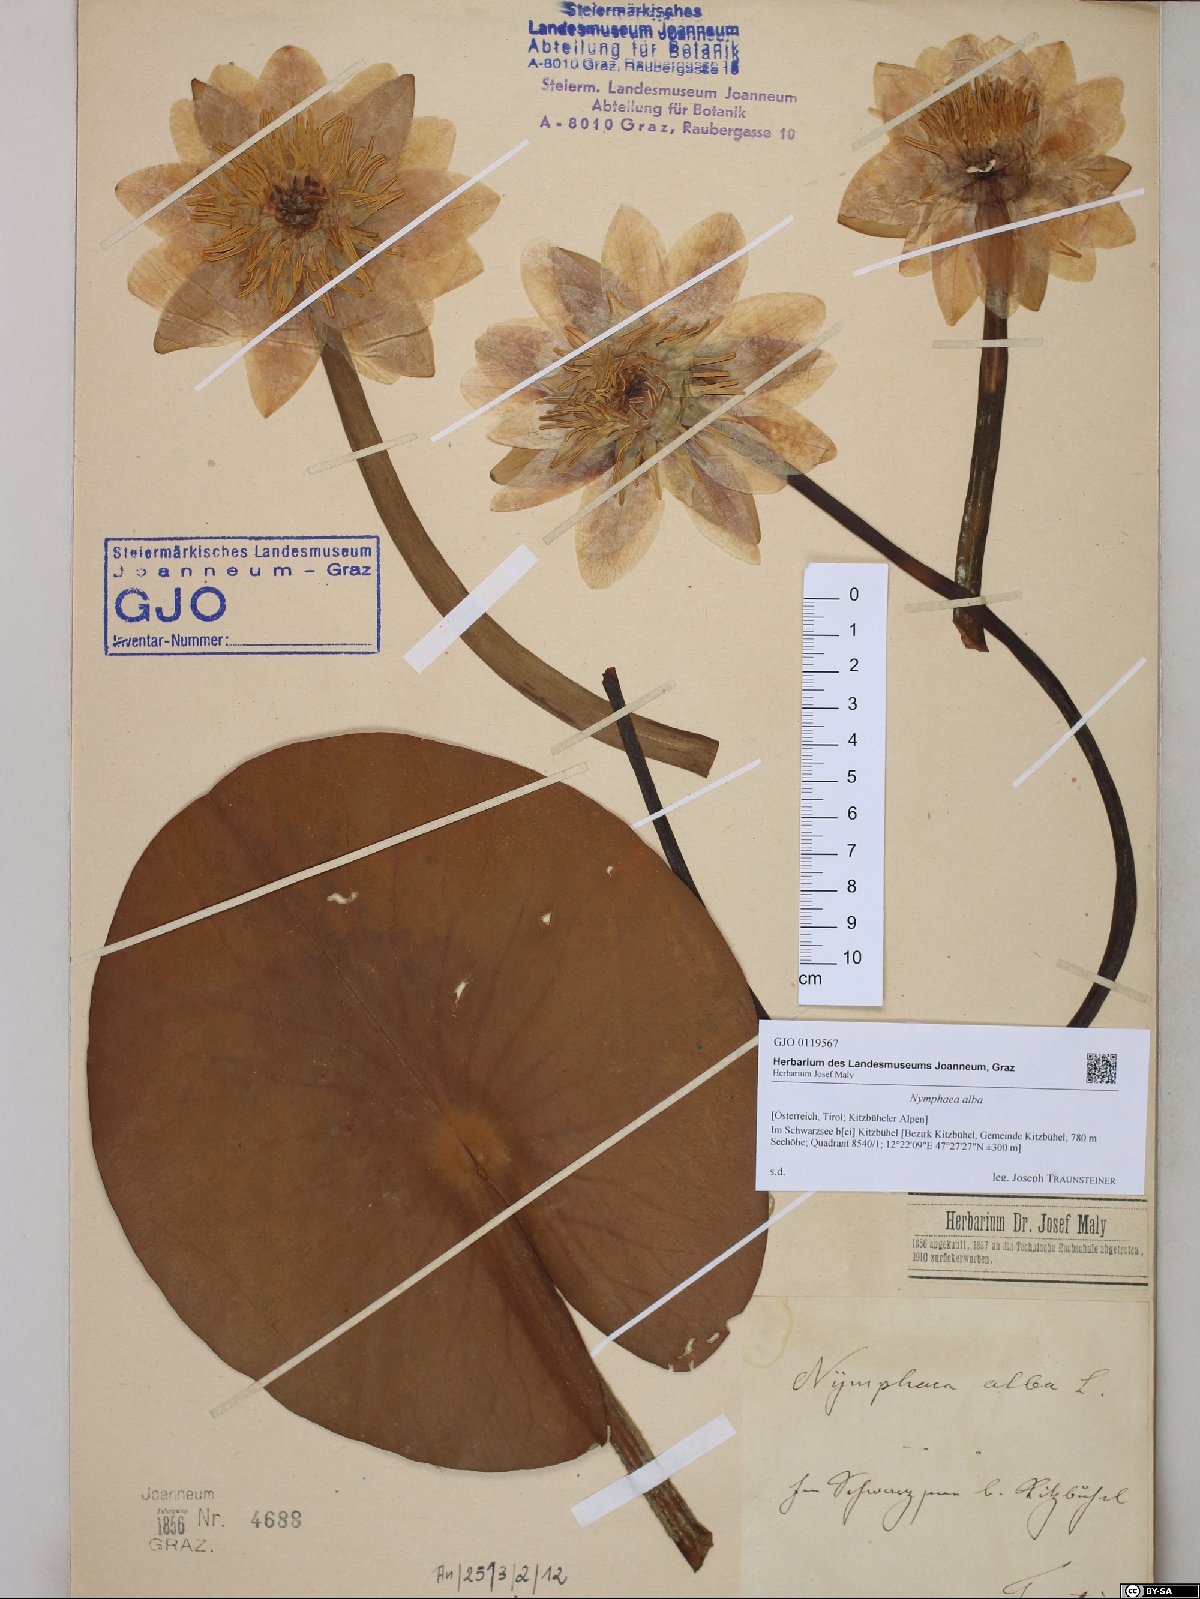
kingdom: Plantae
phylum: Tracheophyta
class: Magnoliopsida
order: Nymphaeales
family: Nymphaeaceae
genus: Nymphaea
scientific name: Nymphaea alba
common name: White water-lily
